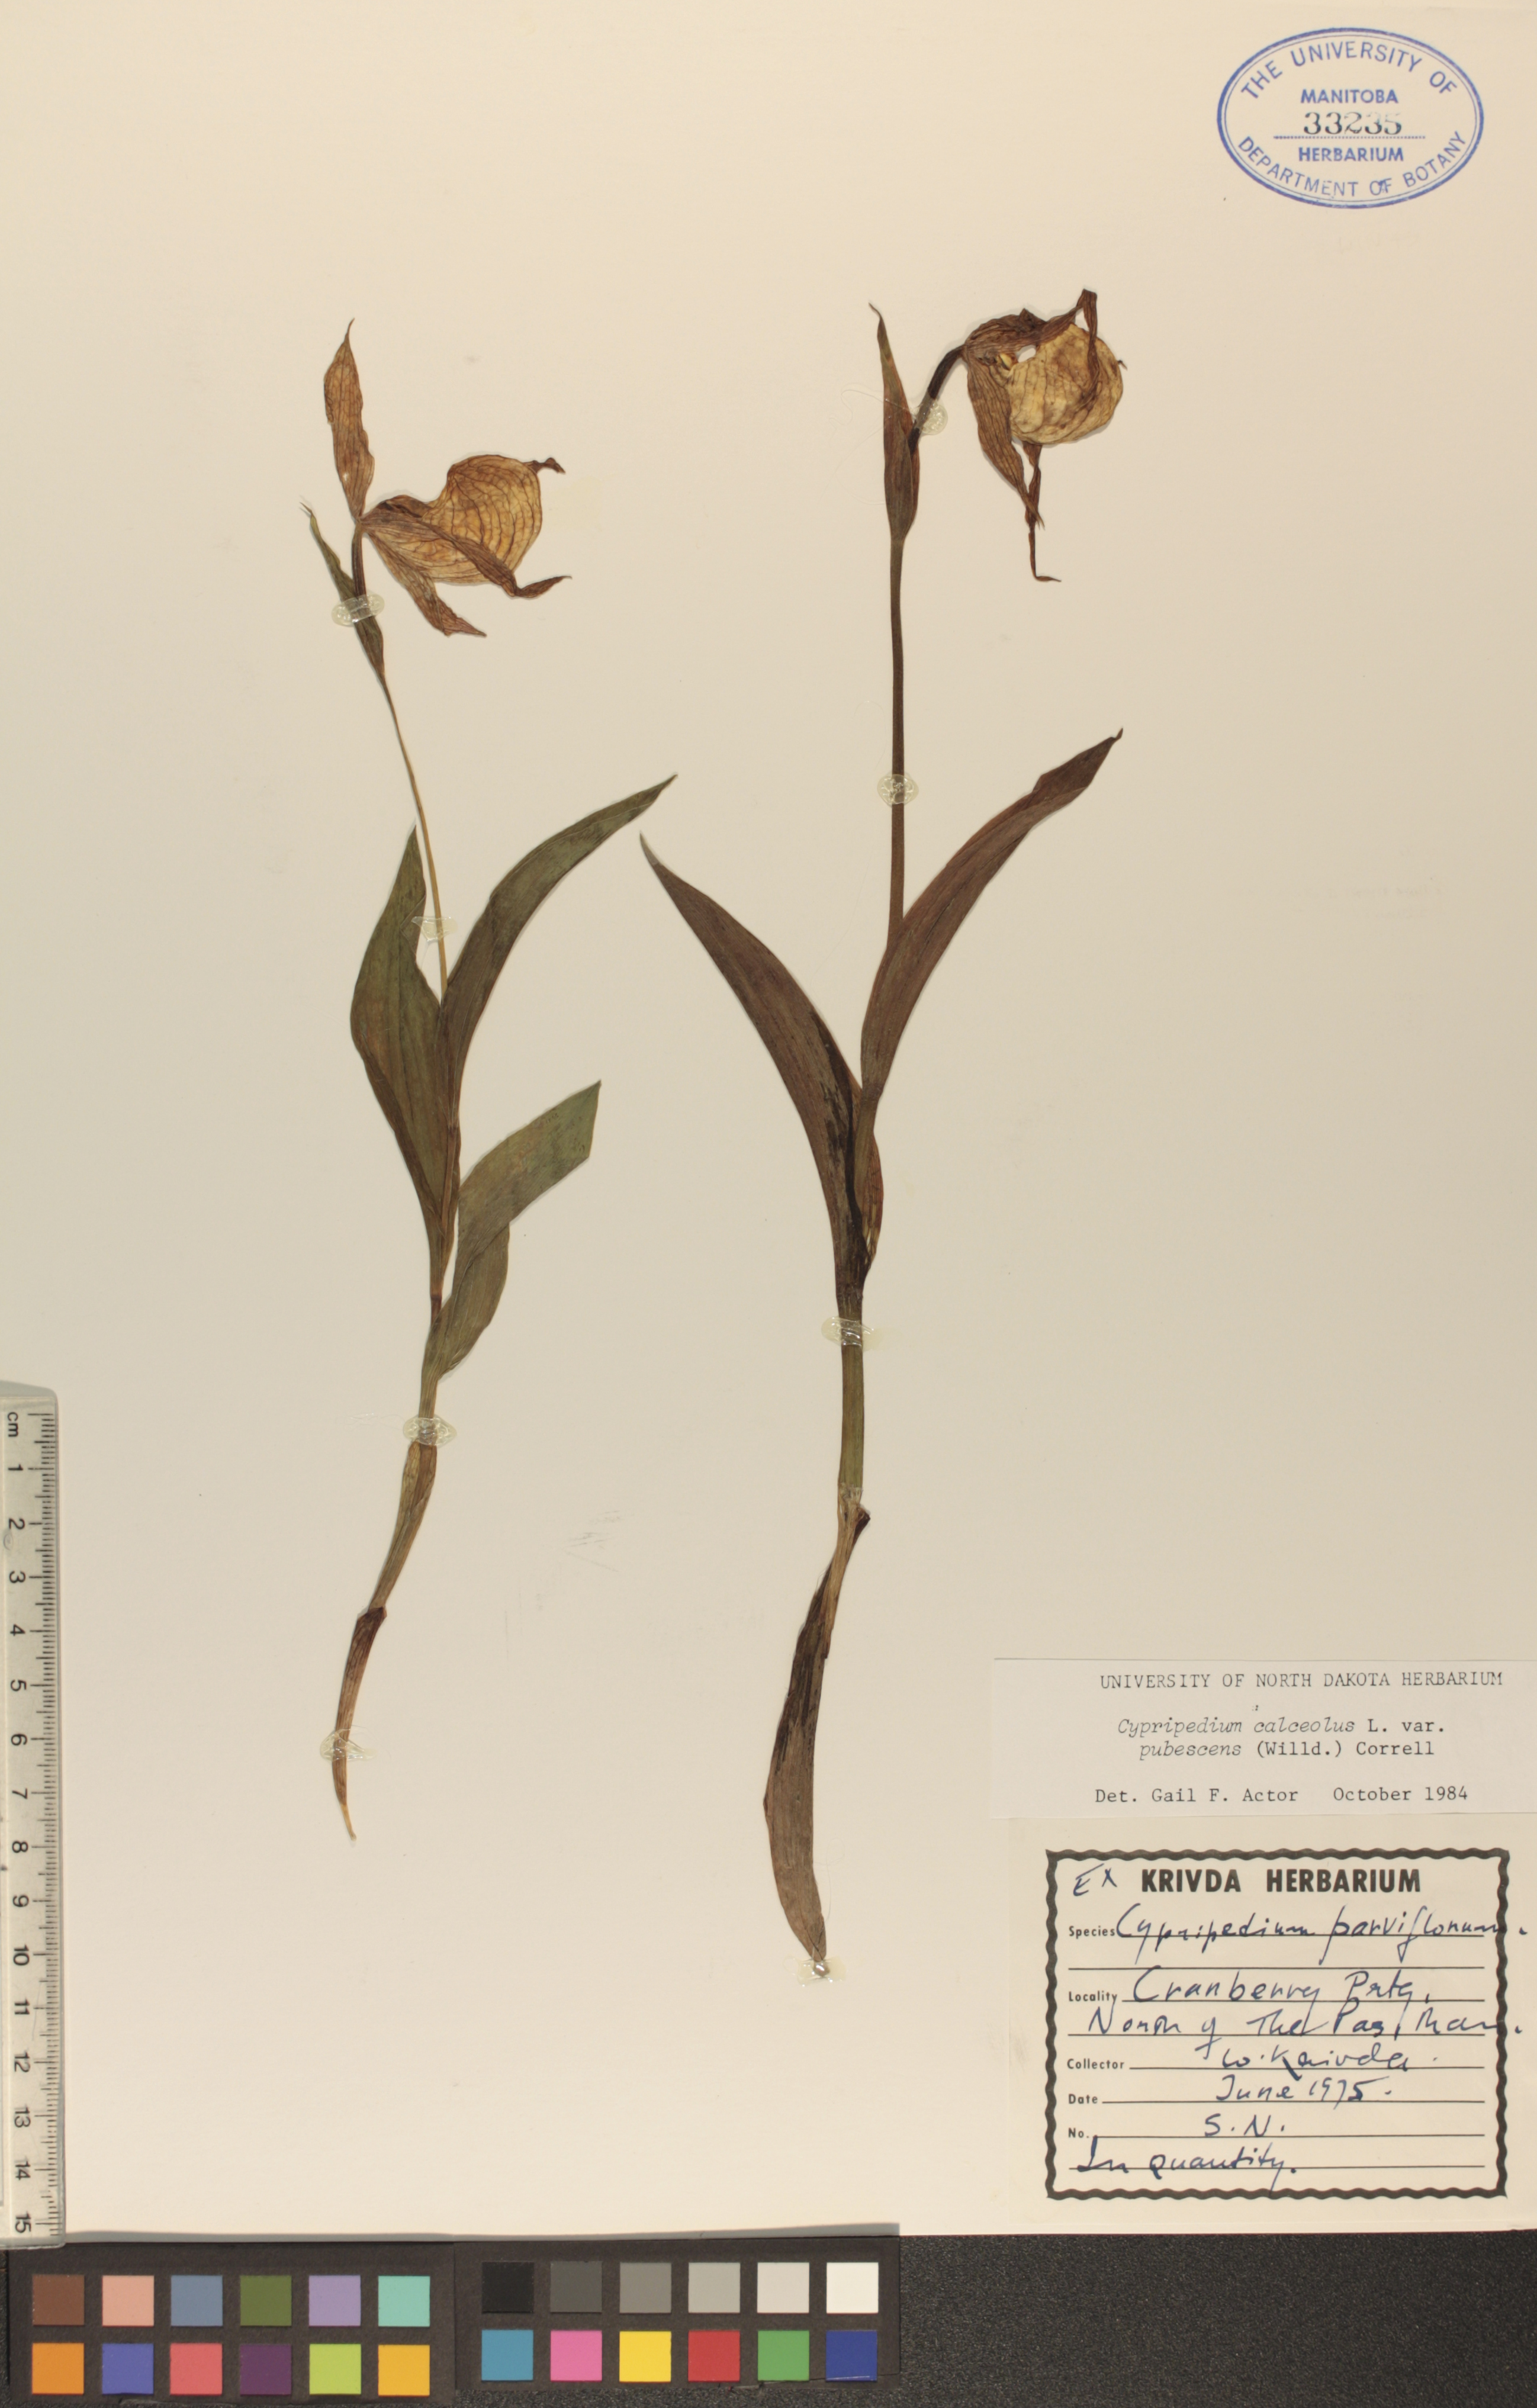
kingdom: Plantae
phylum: Tracheophyta
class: Liliopsida
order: Asparagales
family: Orchidaceae
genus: Cypripedium
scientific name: Cypripedium parviflorum
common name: American yellow lady's-slipper
